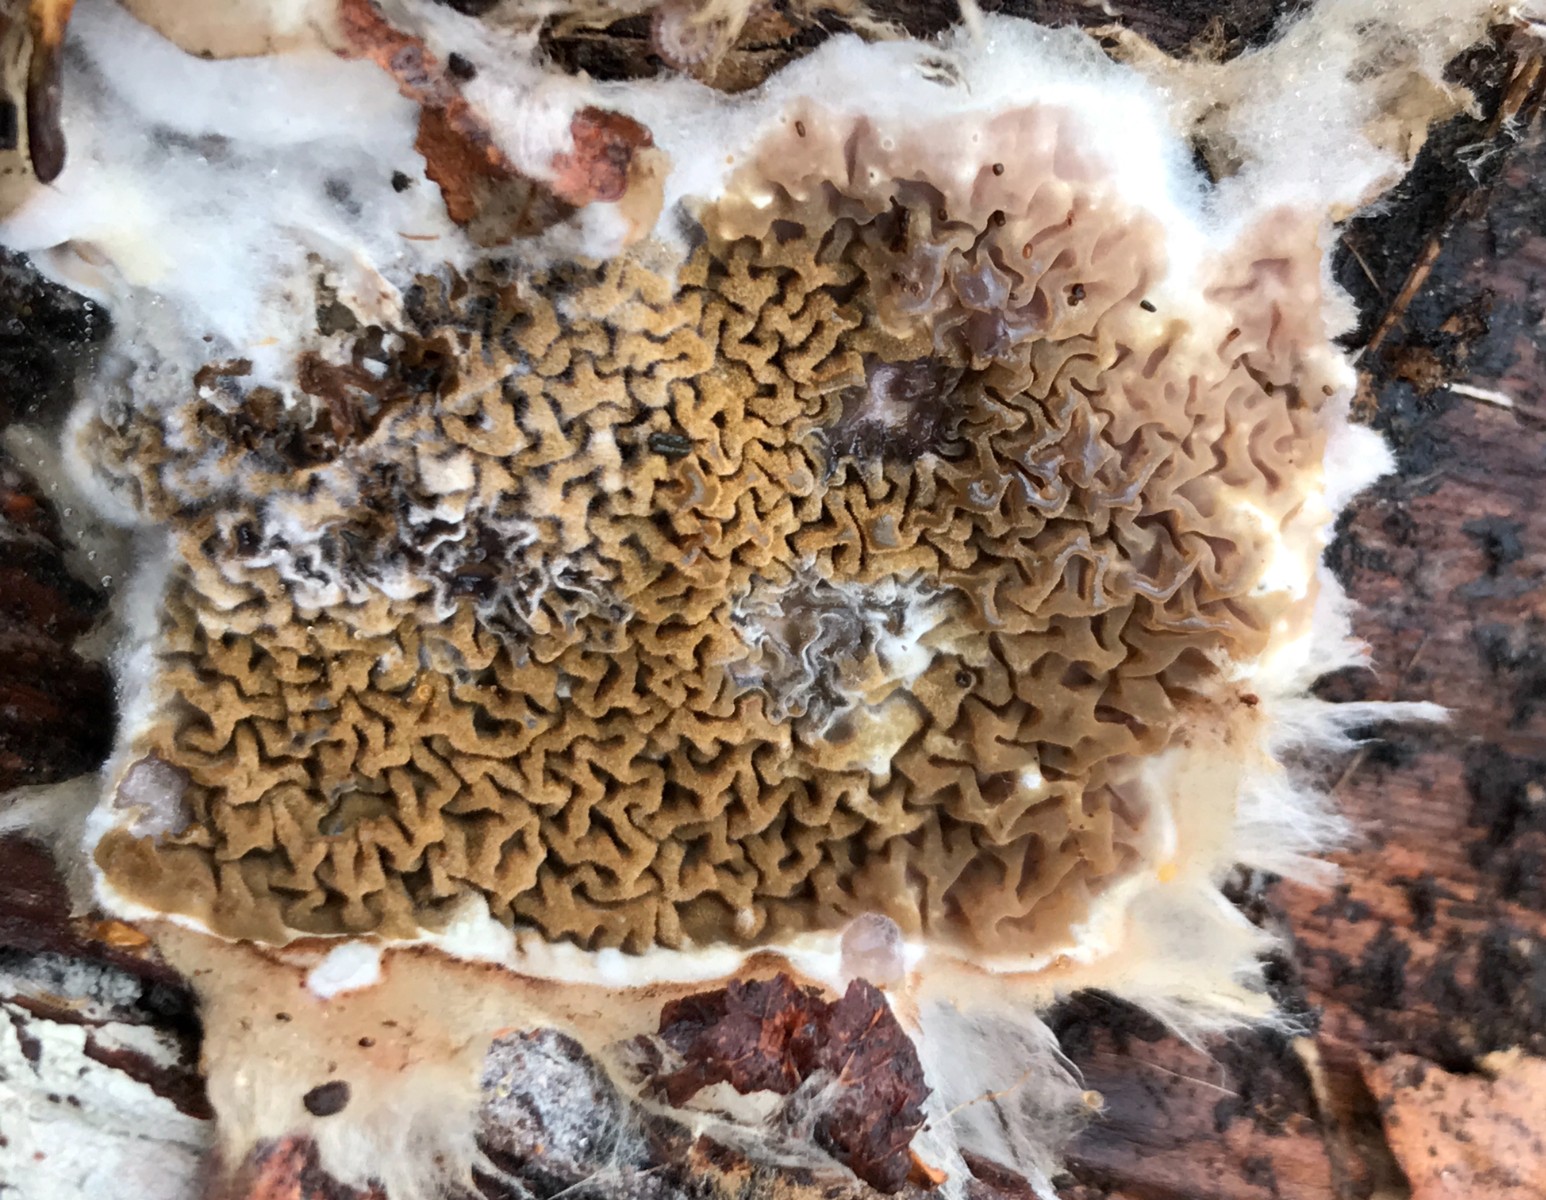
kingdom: Fungi
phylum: Basidiomycota
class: Agaricomycetes
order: Boletales
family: Serpulaceae
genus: Serpula
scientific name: Serpula himantioides
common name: tyndkødet hussvamp
